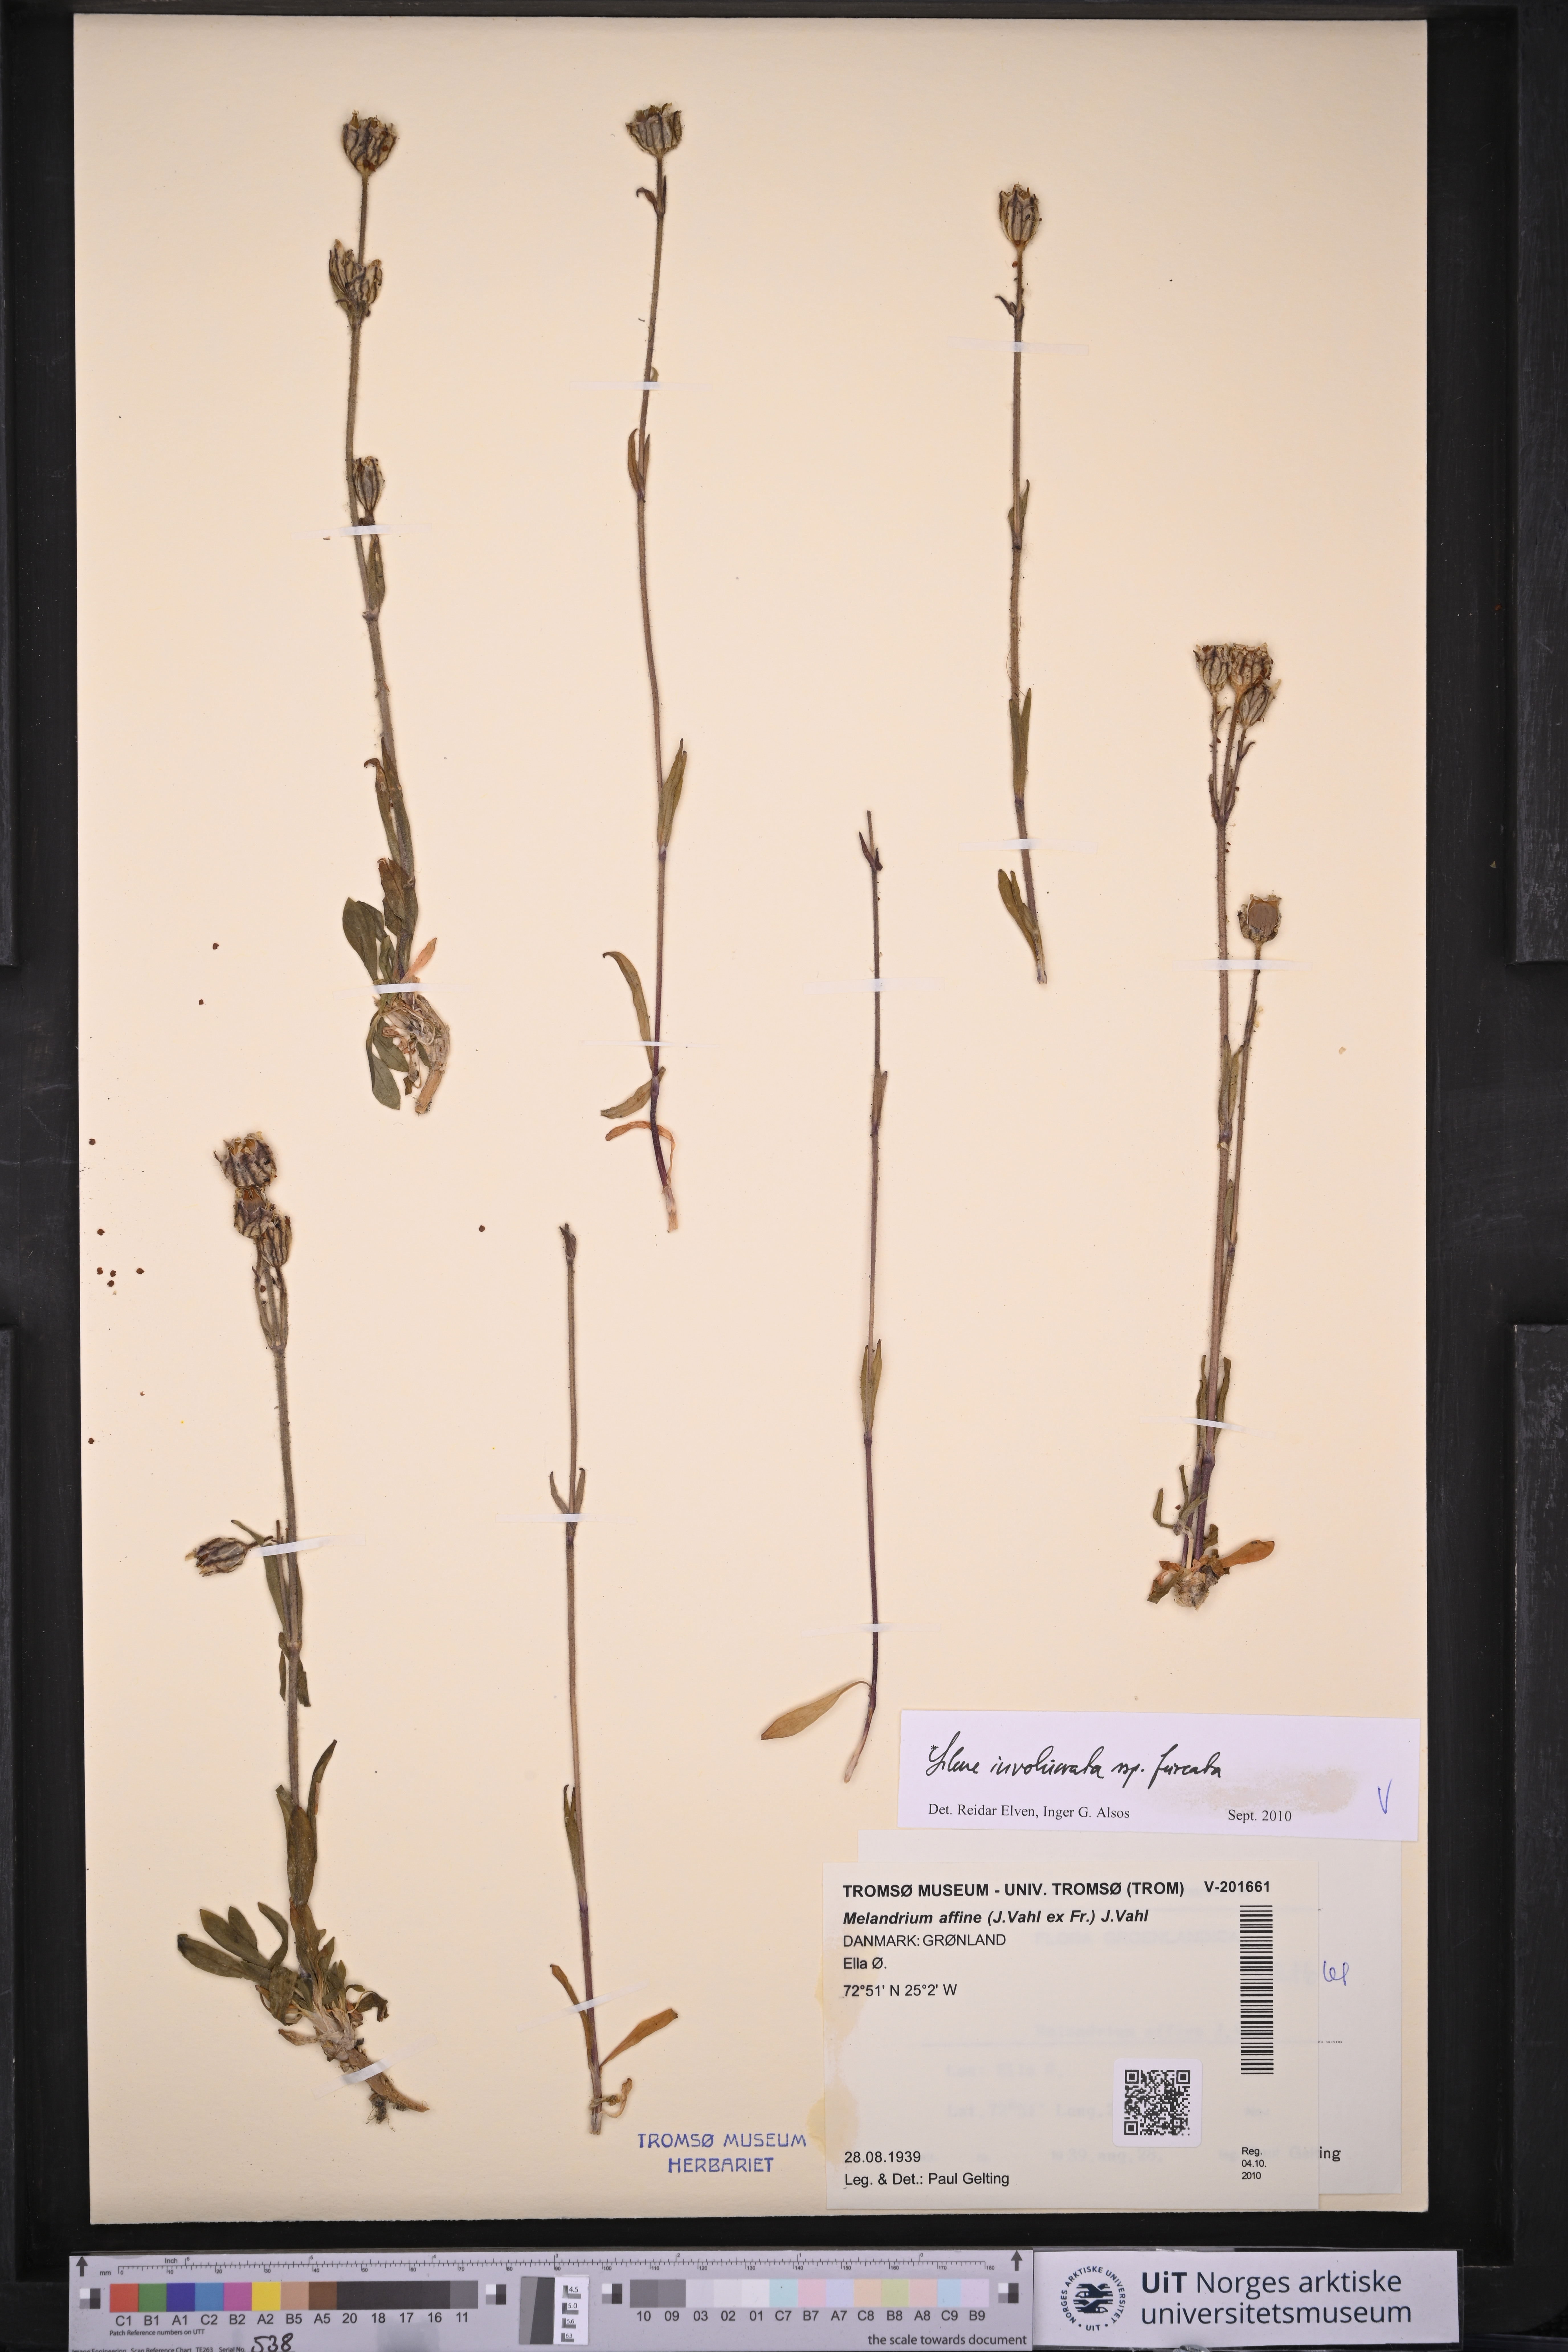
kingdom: Plantae
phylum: Tracheophyta
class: Magnoliopsida
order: Caryophyllales
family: Caryophyllaceae
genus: Silene
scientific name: Silene involucrata
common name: Greater arctic campion
